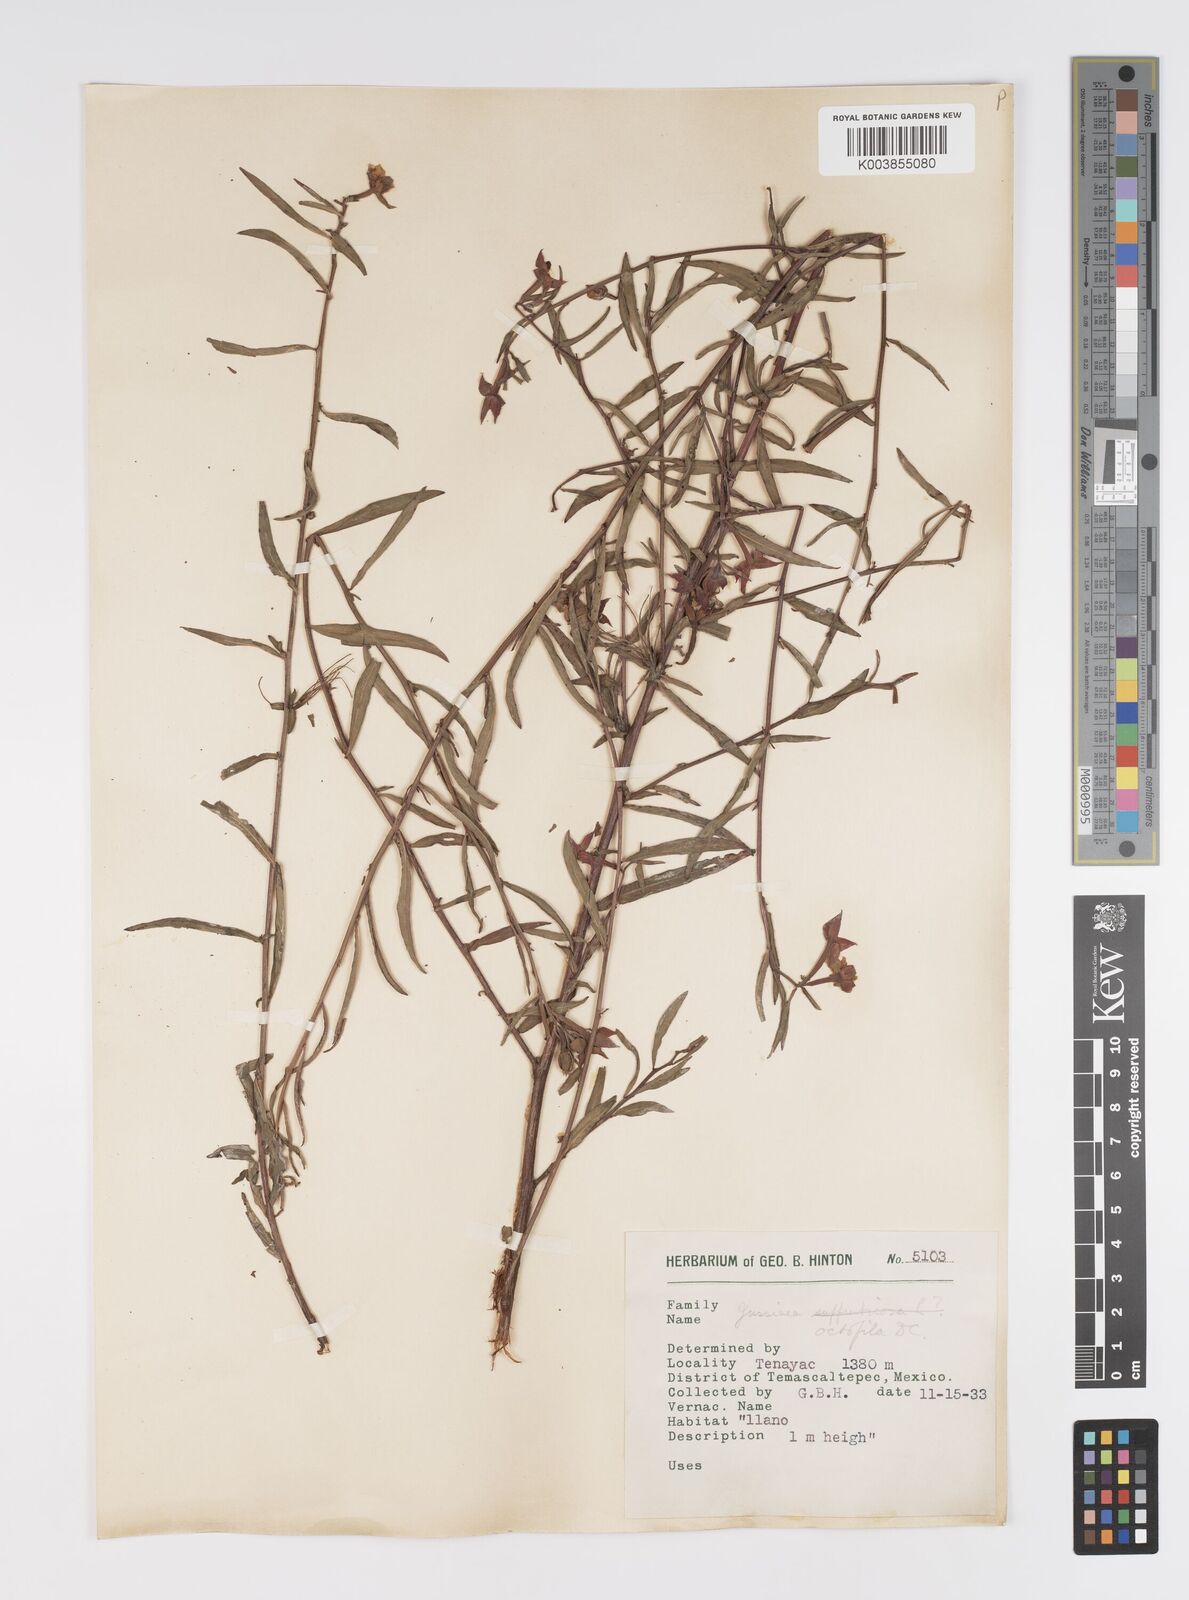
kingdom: Plantae
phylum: Tracheophyta
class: Magnoliopsida
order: Myrtales
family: Onagraceae
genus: Ludwigia
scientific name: Ludwigia octovalvis
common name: Water-primrose
